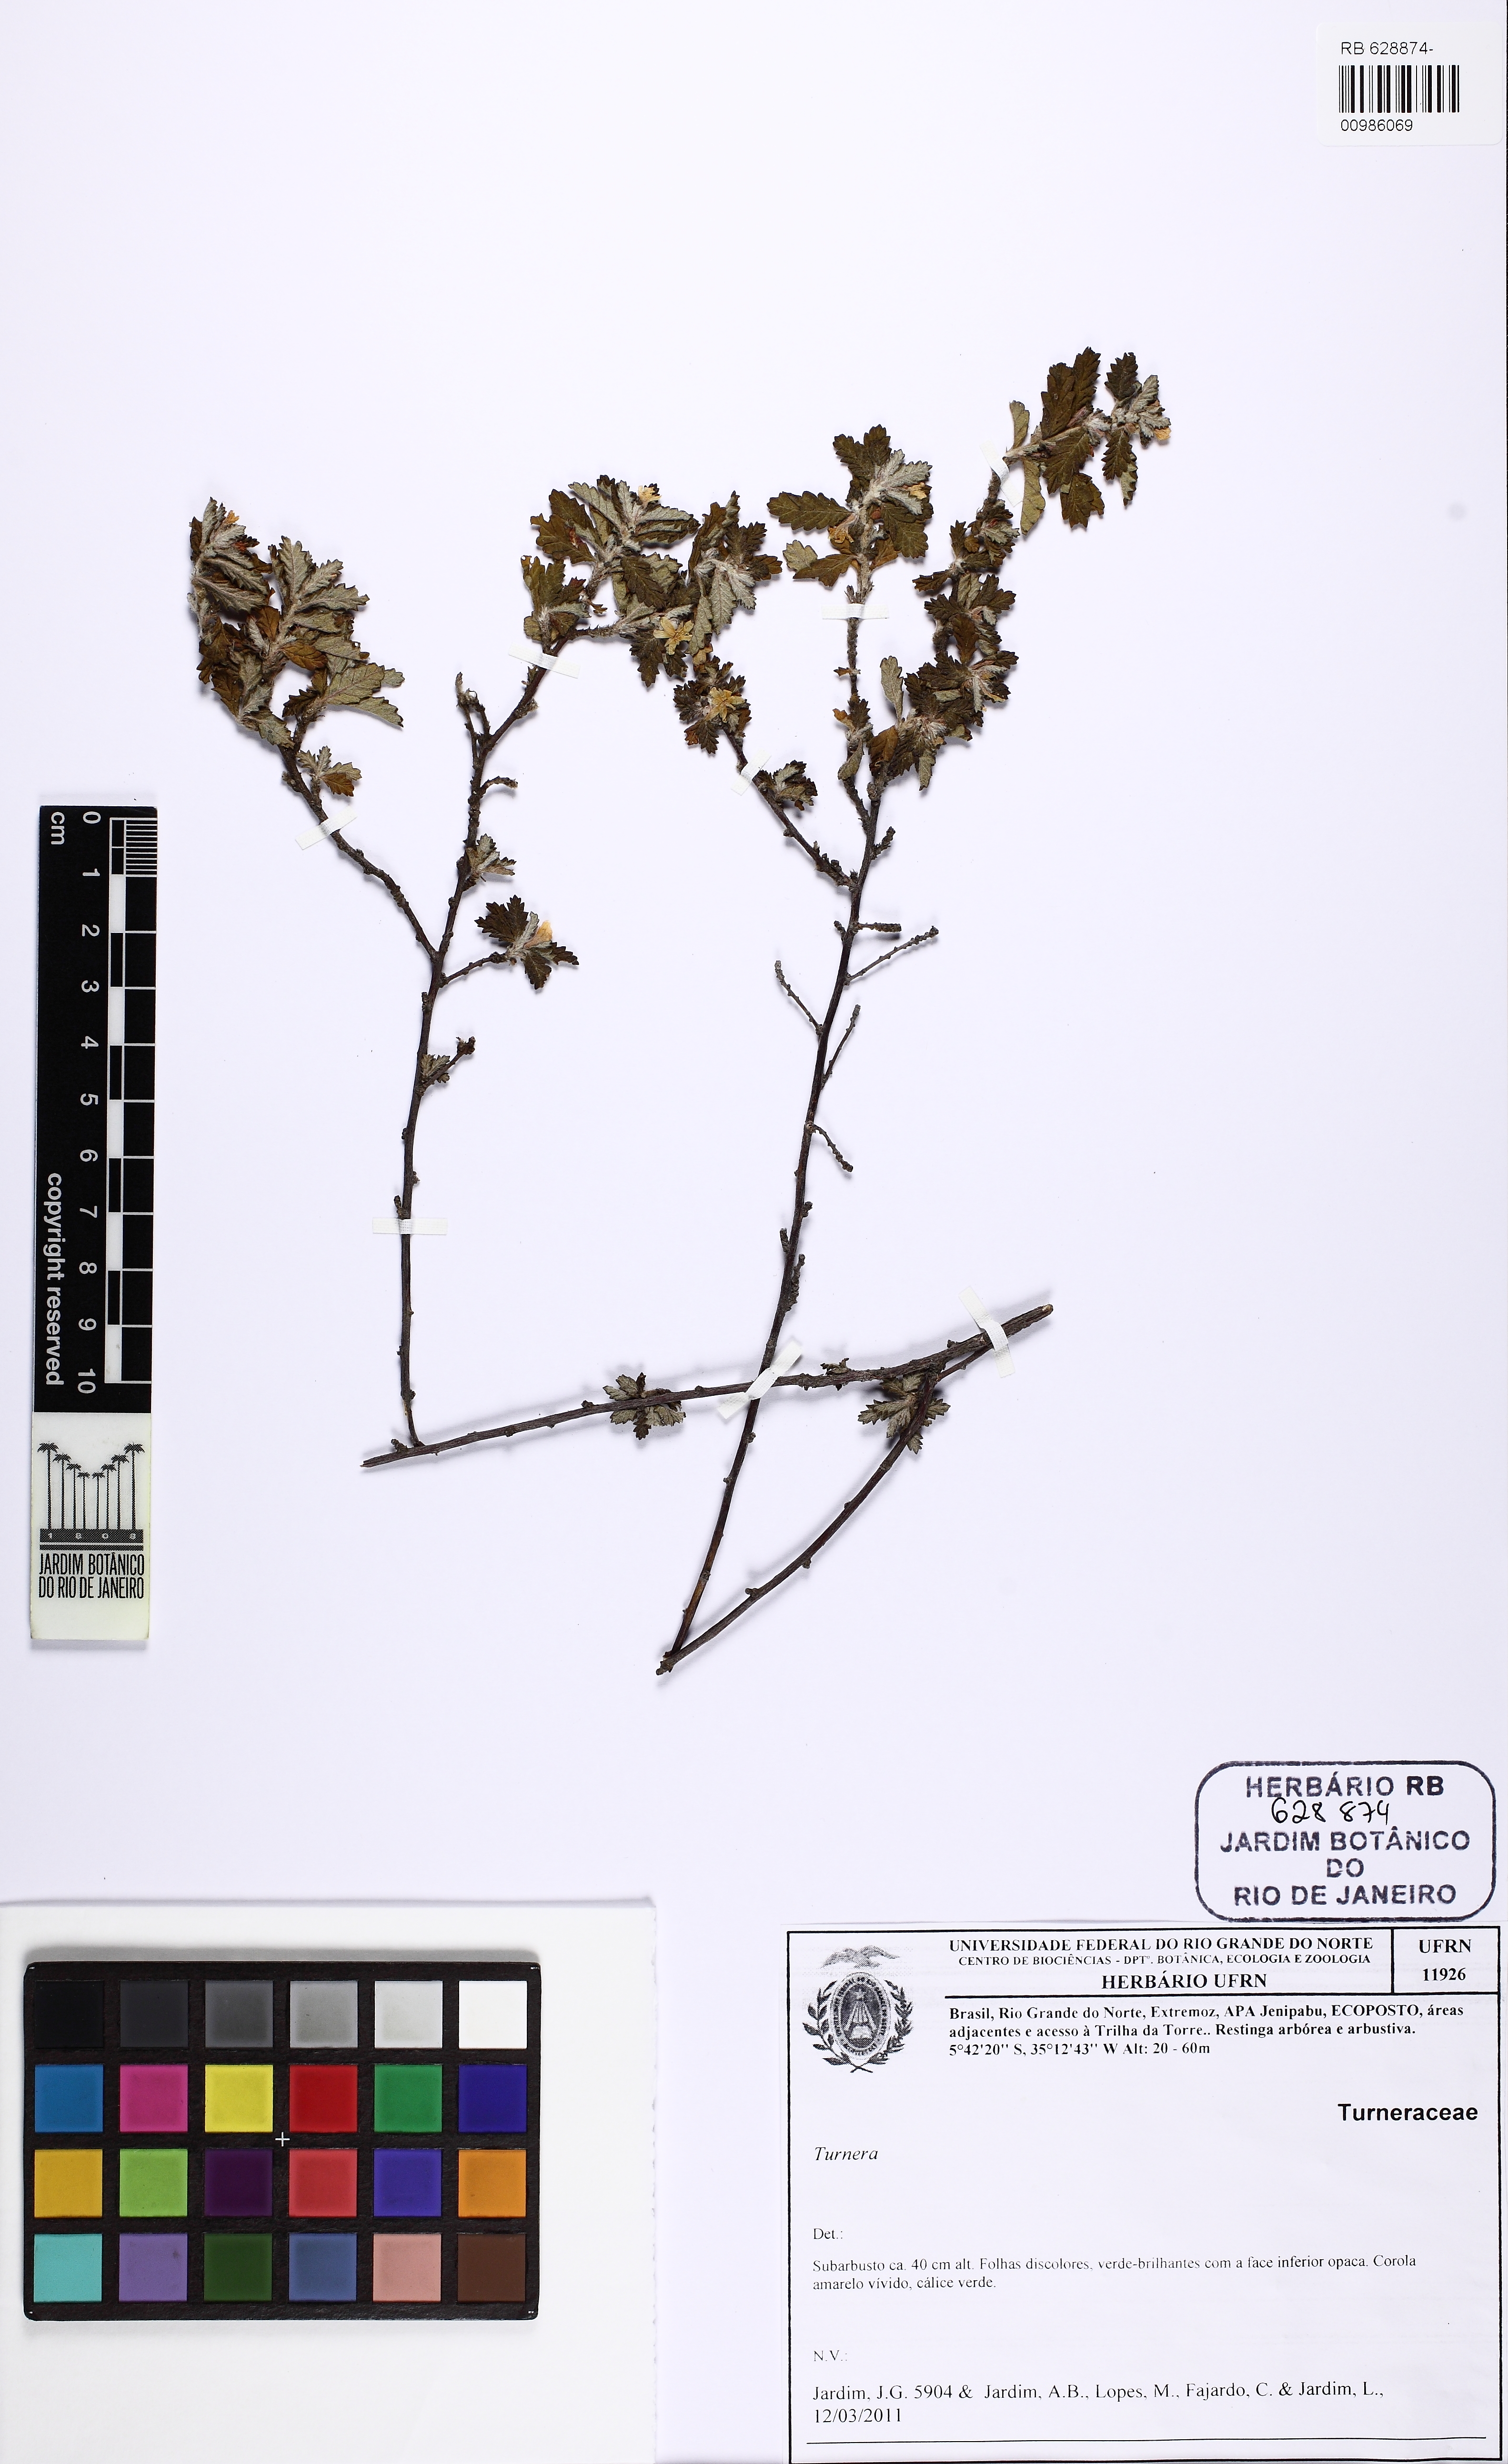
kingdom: Plantae
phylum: Tracheophyta
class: Magnoliopsida
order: Malpighiales
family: Turneraceae
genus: Turnera
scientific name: Turnera diffusa
